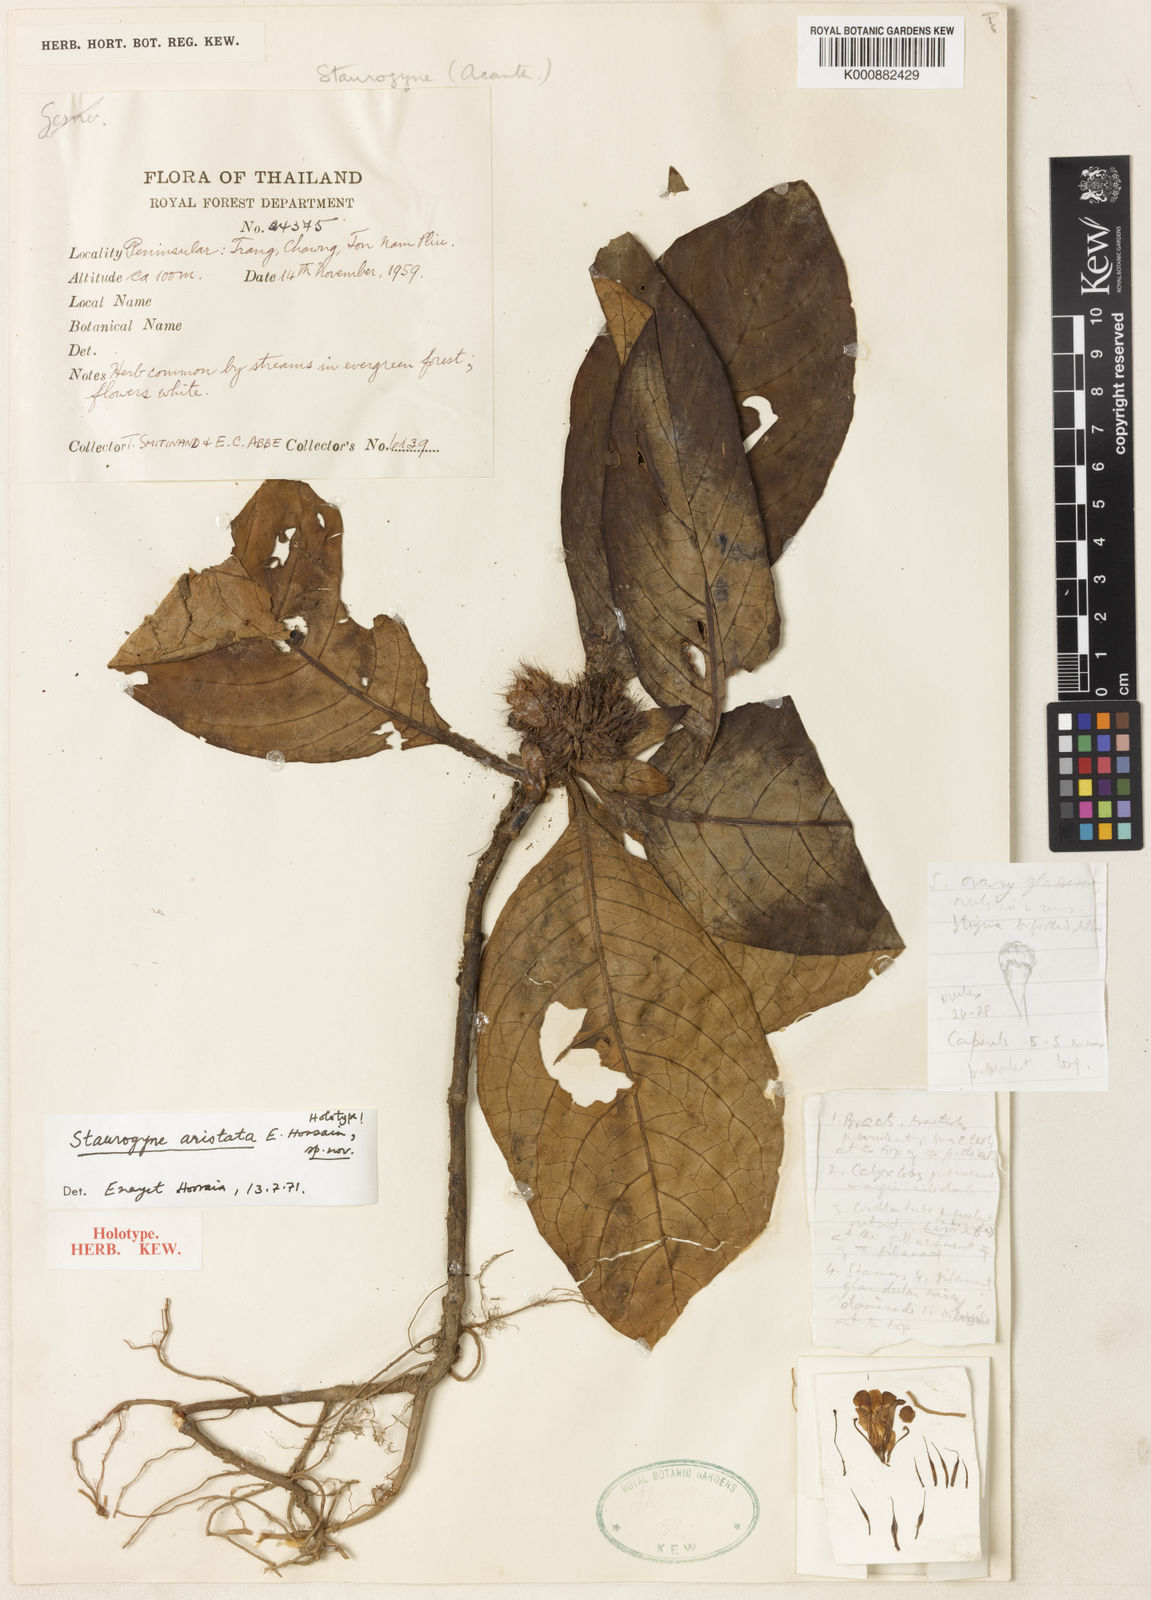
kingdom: Plantae
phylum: Tracheophyta
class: Magnoliopsida
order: Lamiales
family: Acanthaceae
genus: Staurogyne
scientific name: Staurogyne aristata
